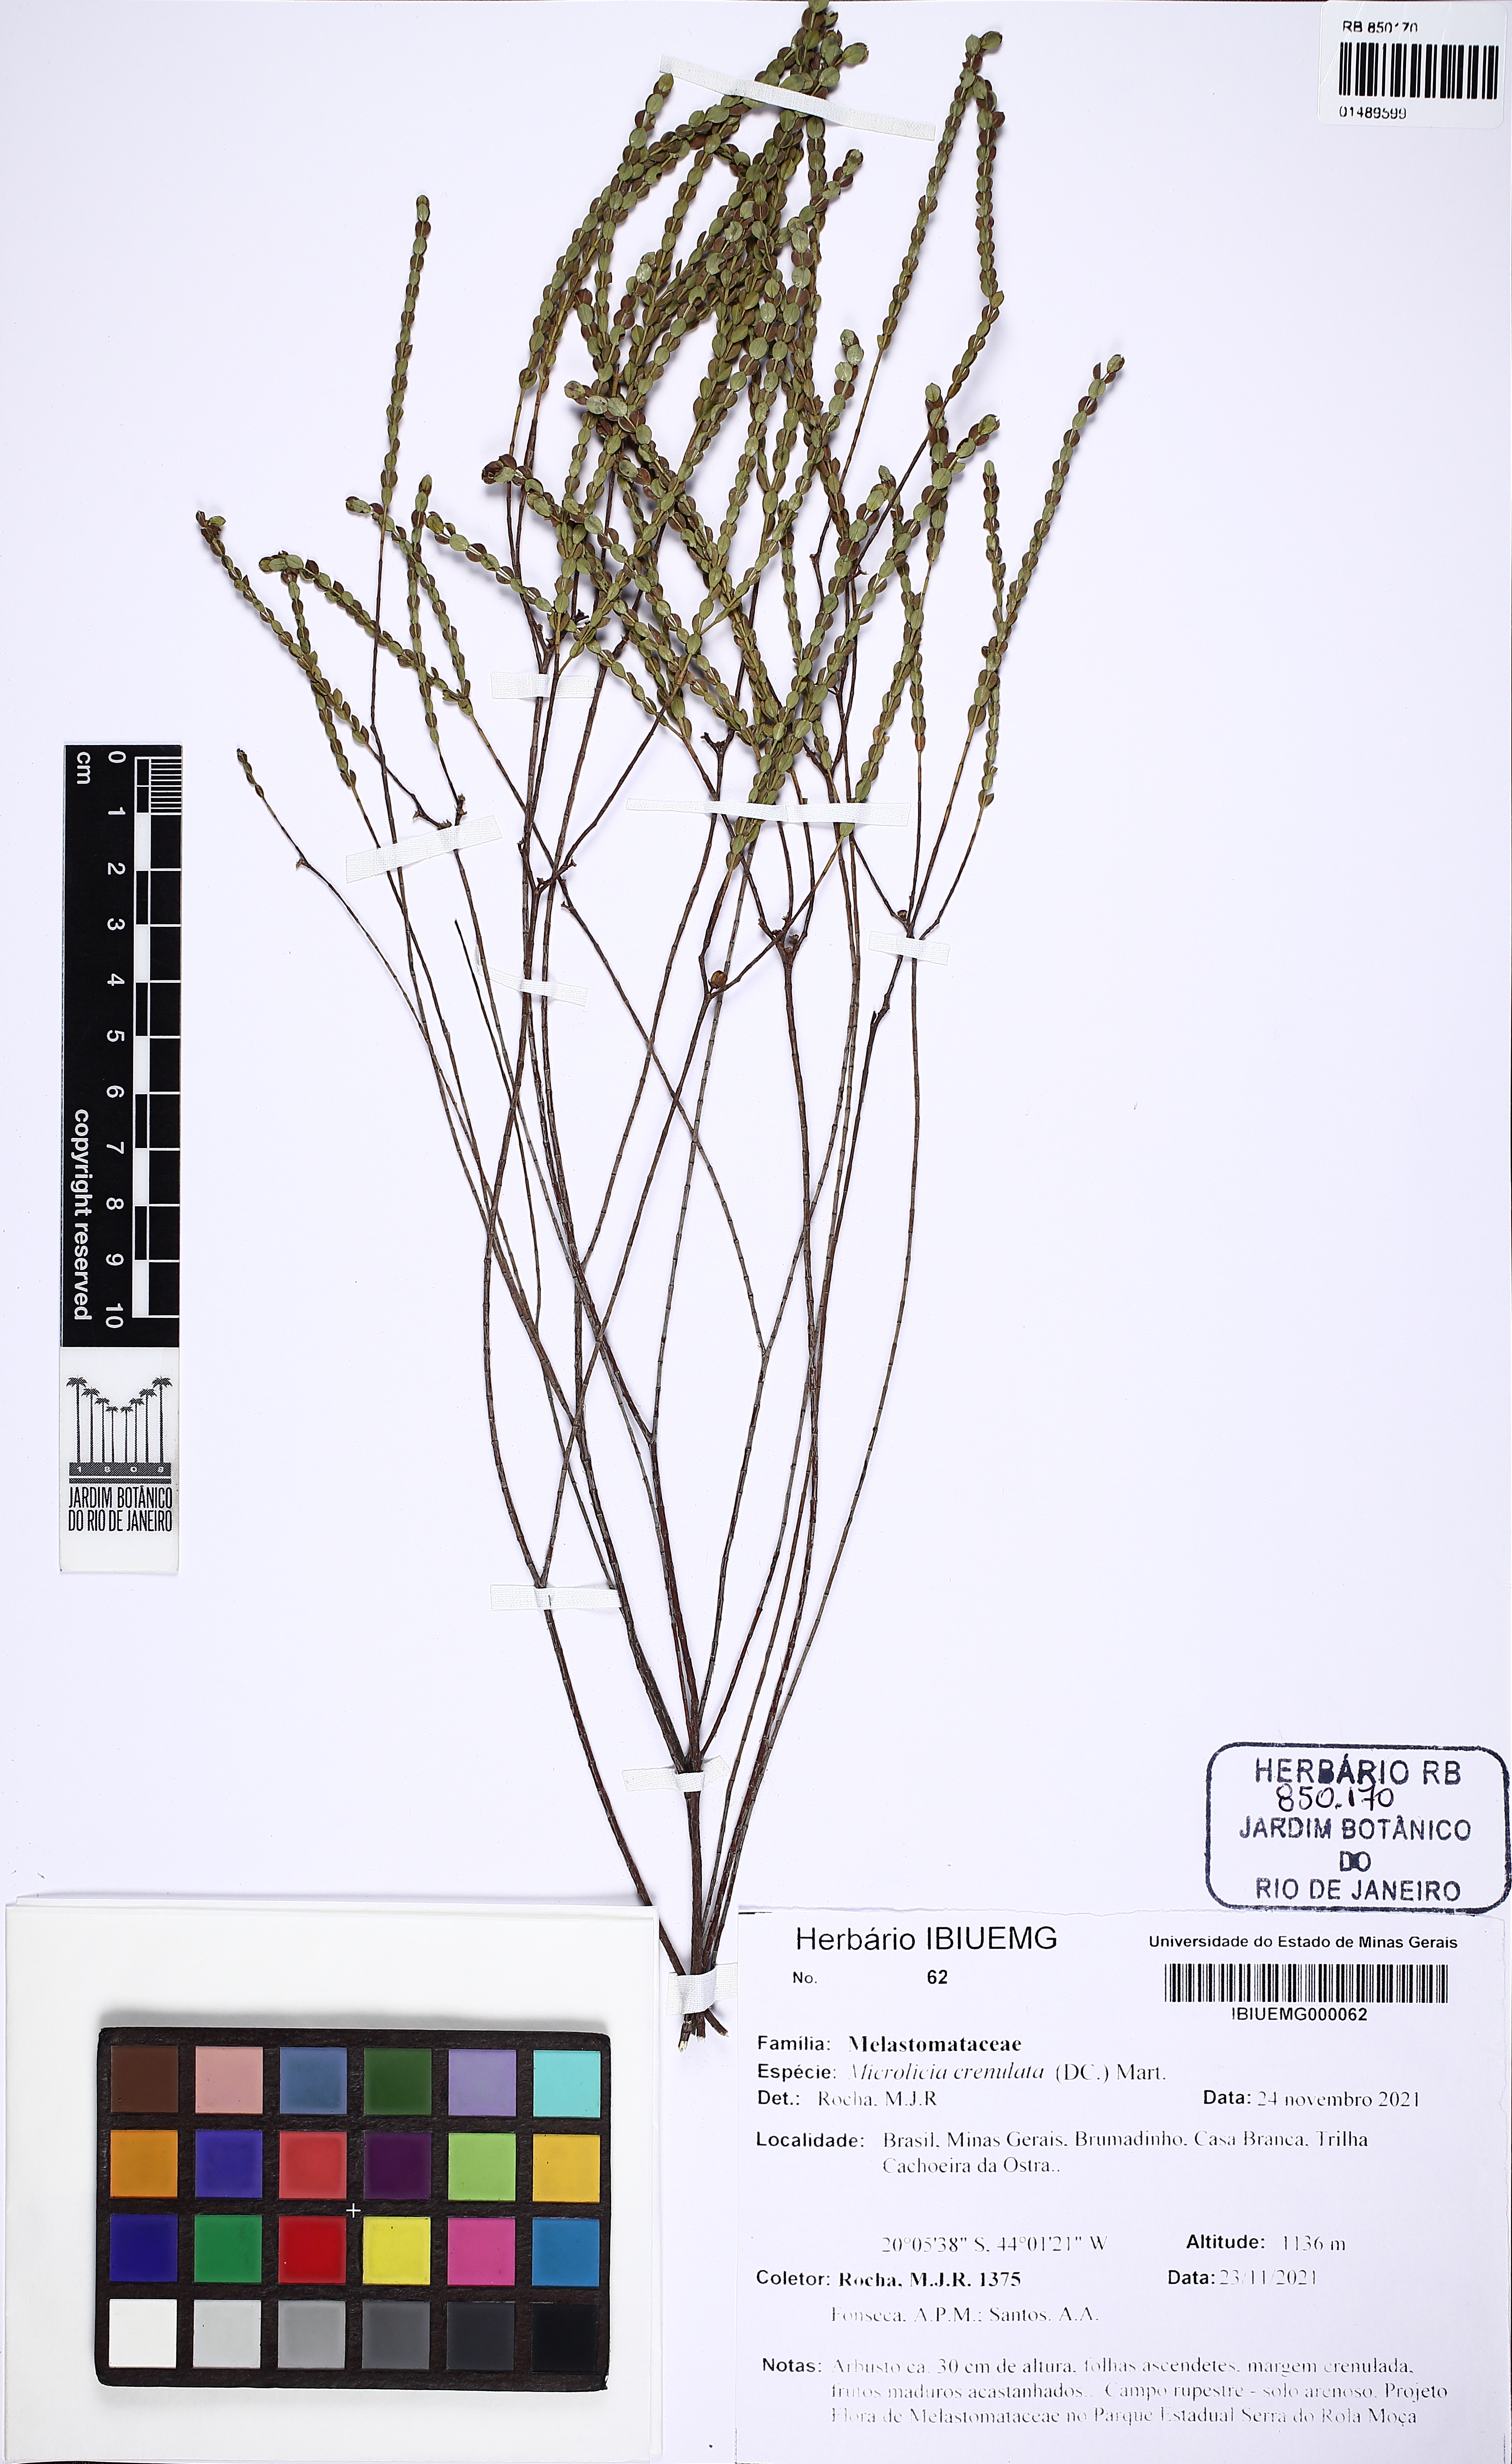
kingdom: Plantae
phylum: Tracheophyta
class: Magnoliopsida
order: Myrtales
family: Melastomataceae
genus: Microlicia
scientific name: Microlicia crebropunctata
